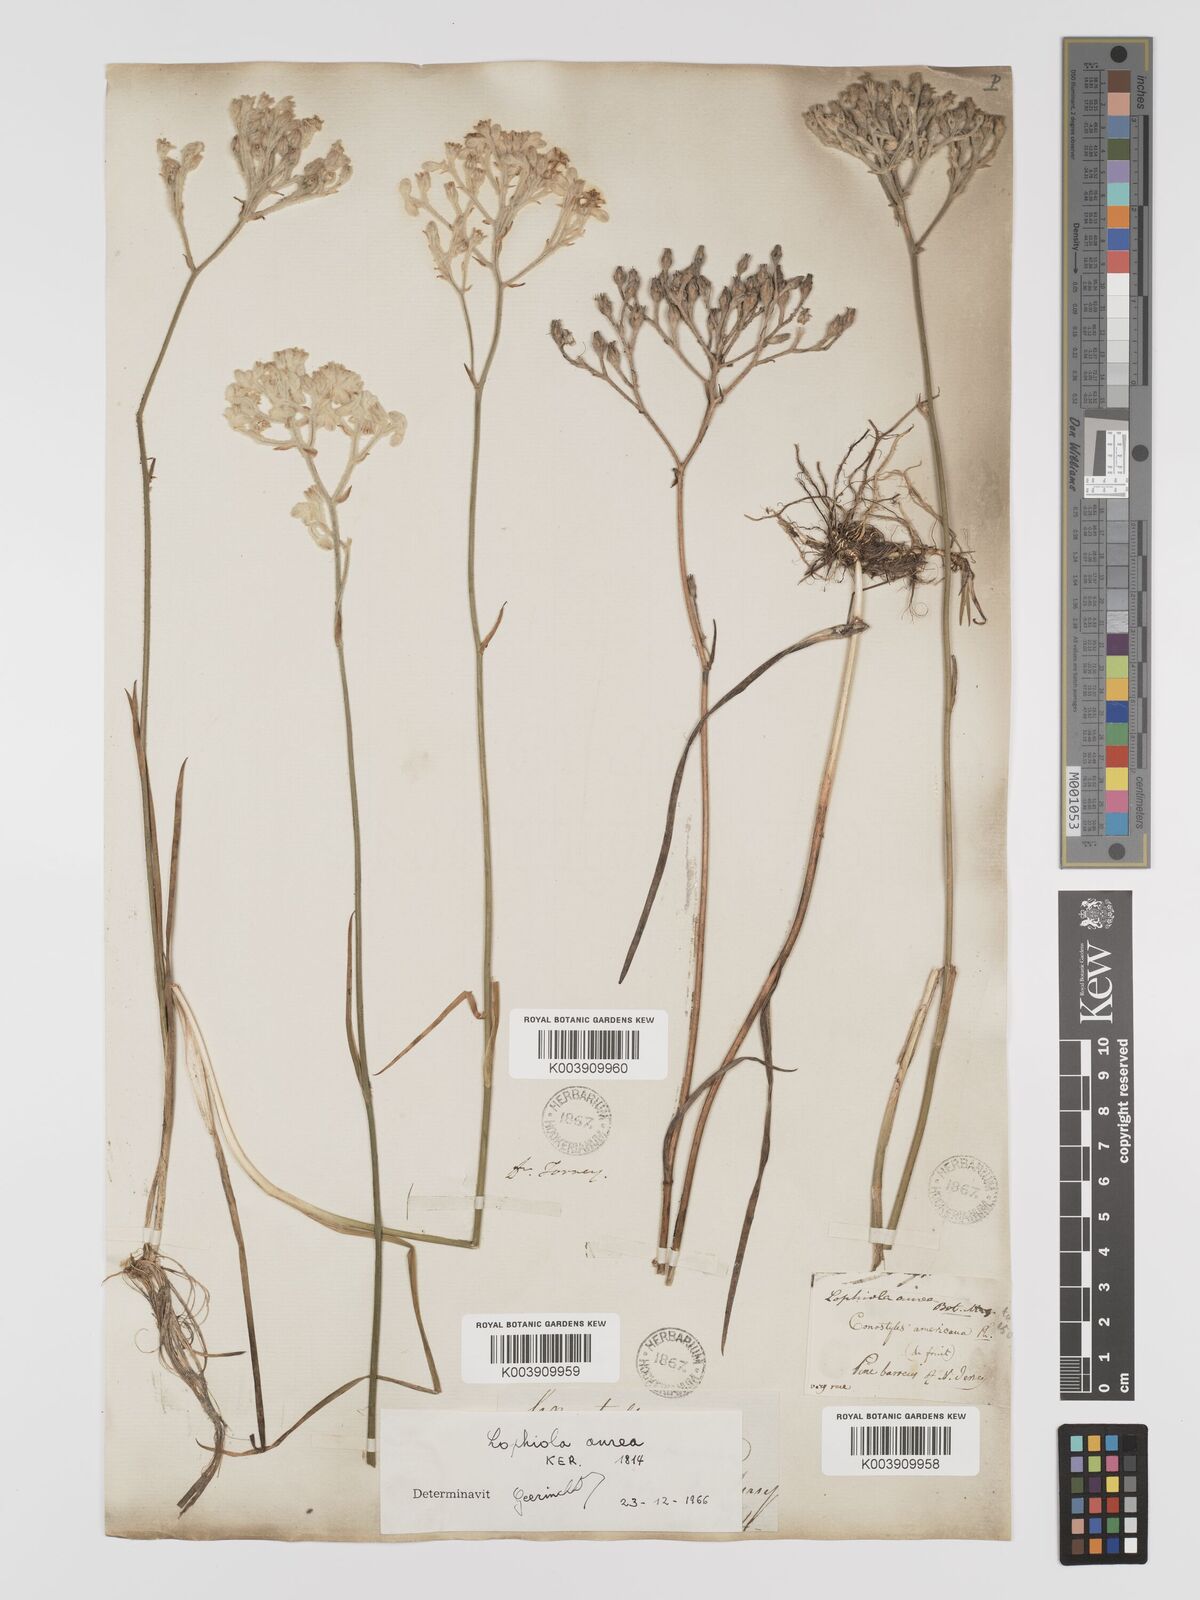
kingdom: Plantae
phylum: Tracheophyta
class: Liliopsida
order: Dioscoreales
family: Nartheciaceae
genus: Lophiola
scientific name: Lophiola aurea
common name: Golden-crest
